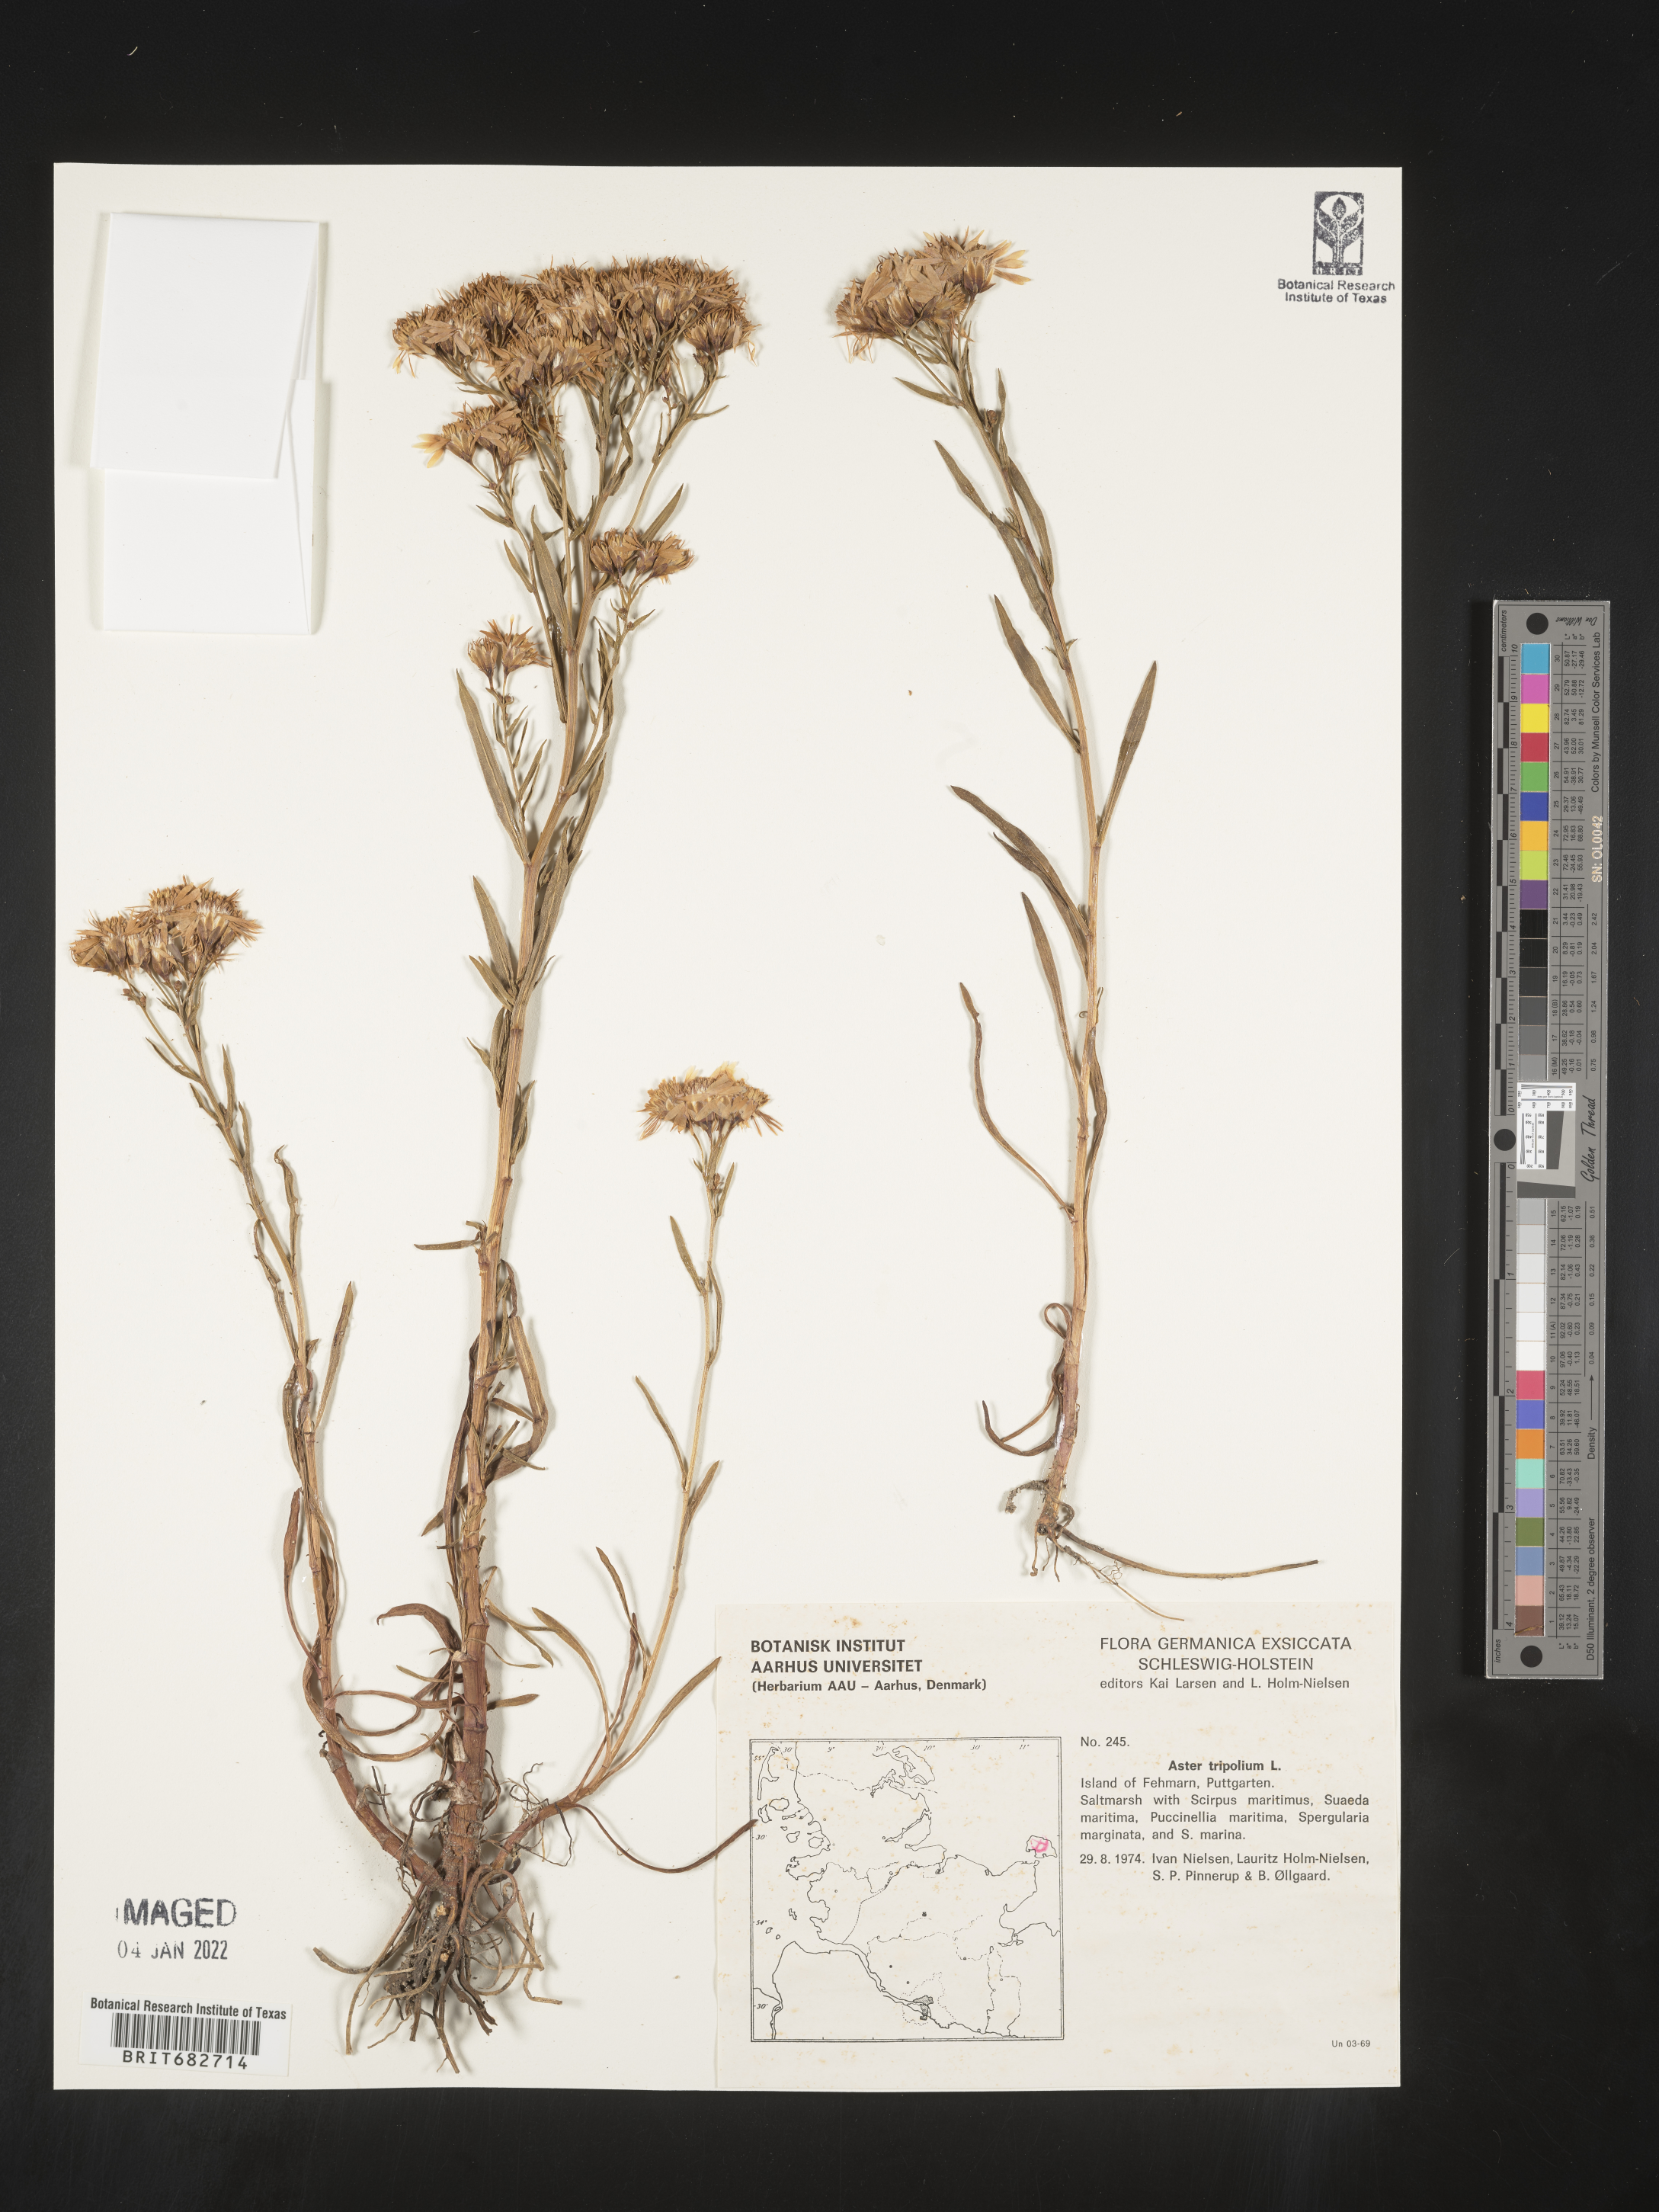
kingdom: Plantae
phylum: Tracheophyta
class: Magnoliopsida
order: Asterales
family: Asteraceae
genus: Aster
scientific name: Aster
